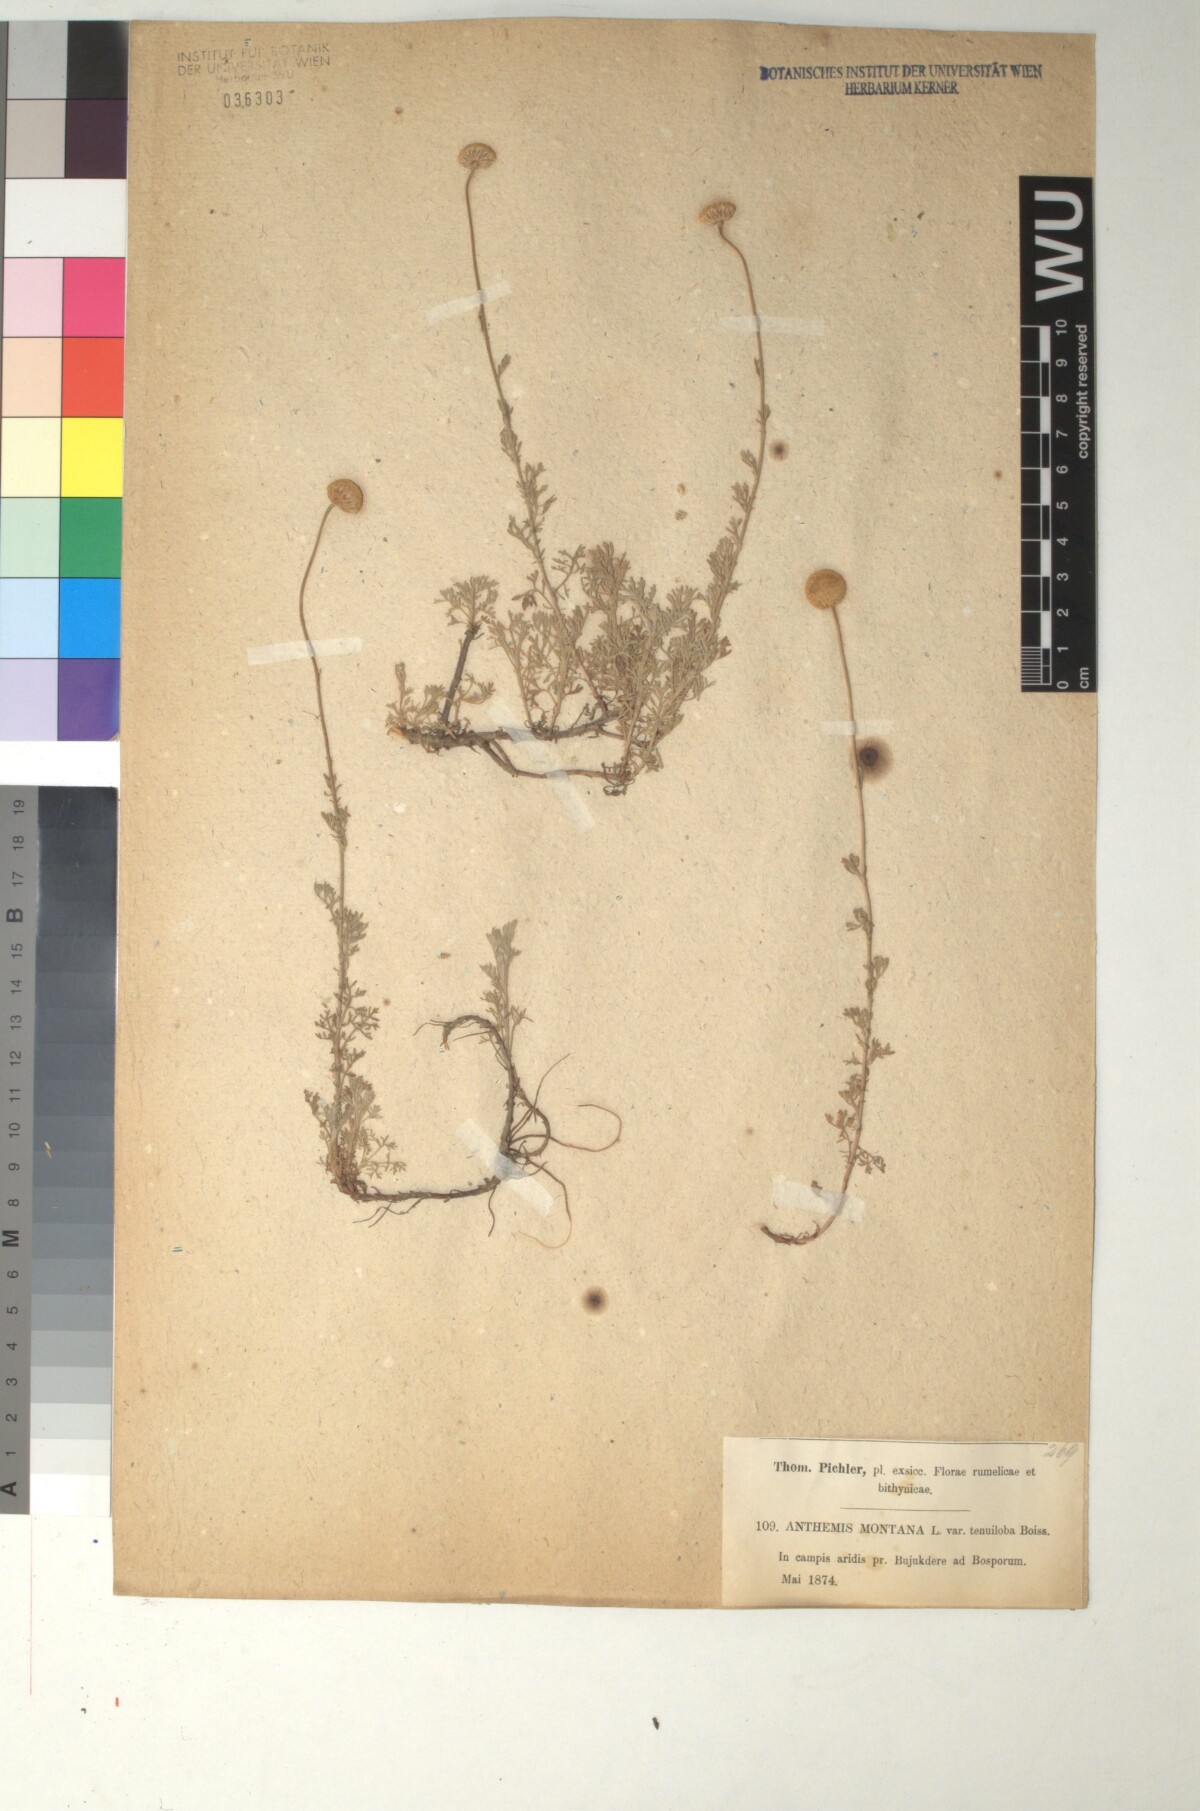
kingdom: Plantae
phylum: Tracheophyta
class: Magnoliopsida
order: Asterales
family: Asteraceae
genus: Anthemis
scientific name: Anthemis cretica
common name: Mountain dog-daisy
